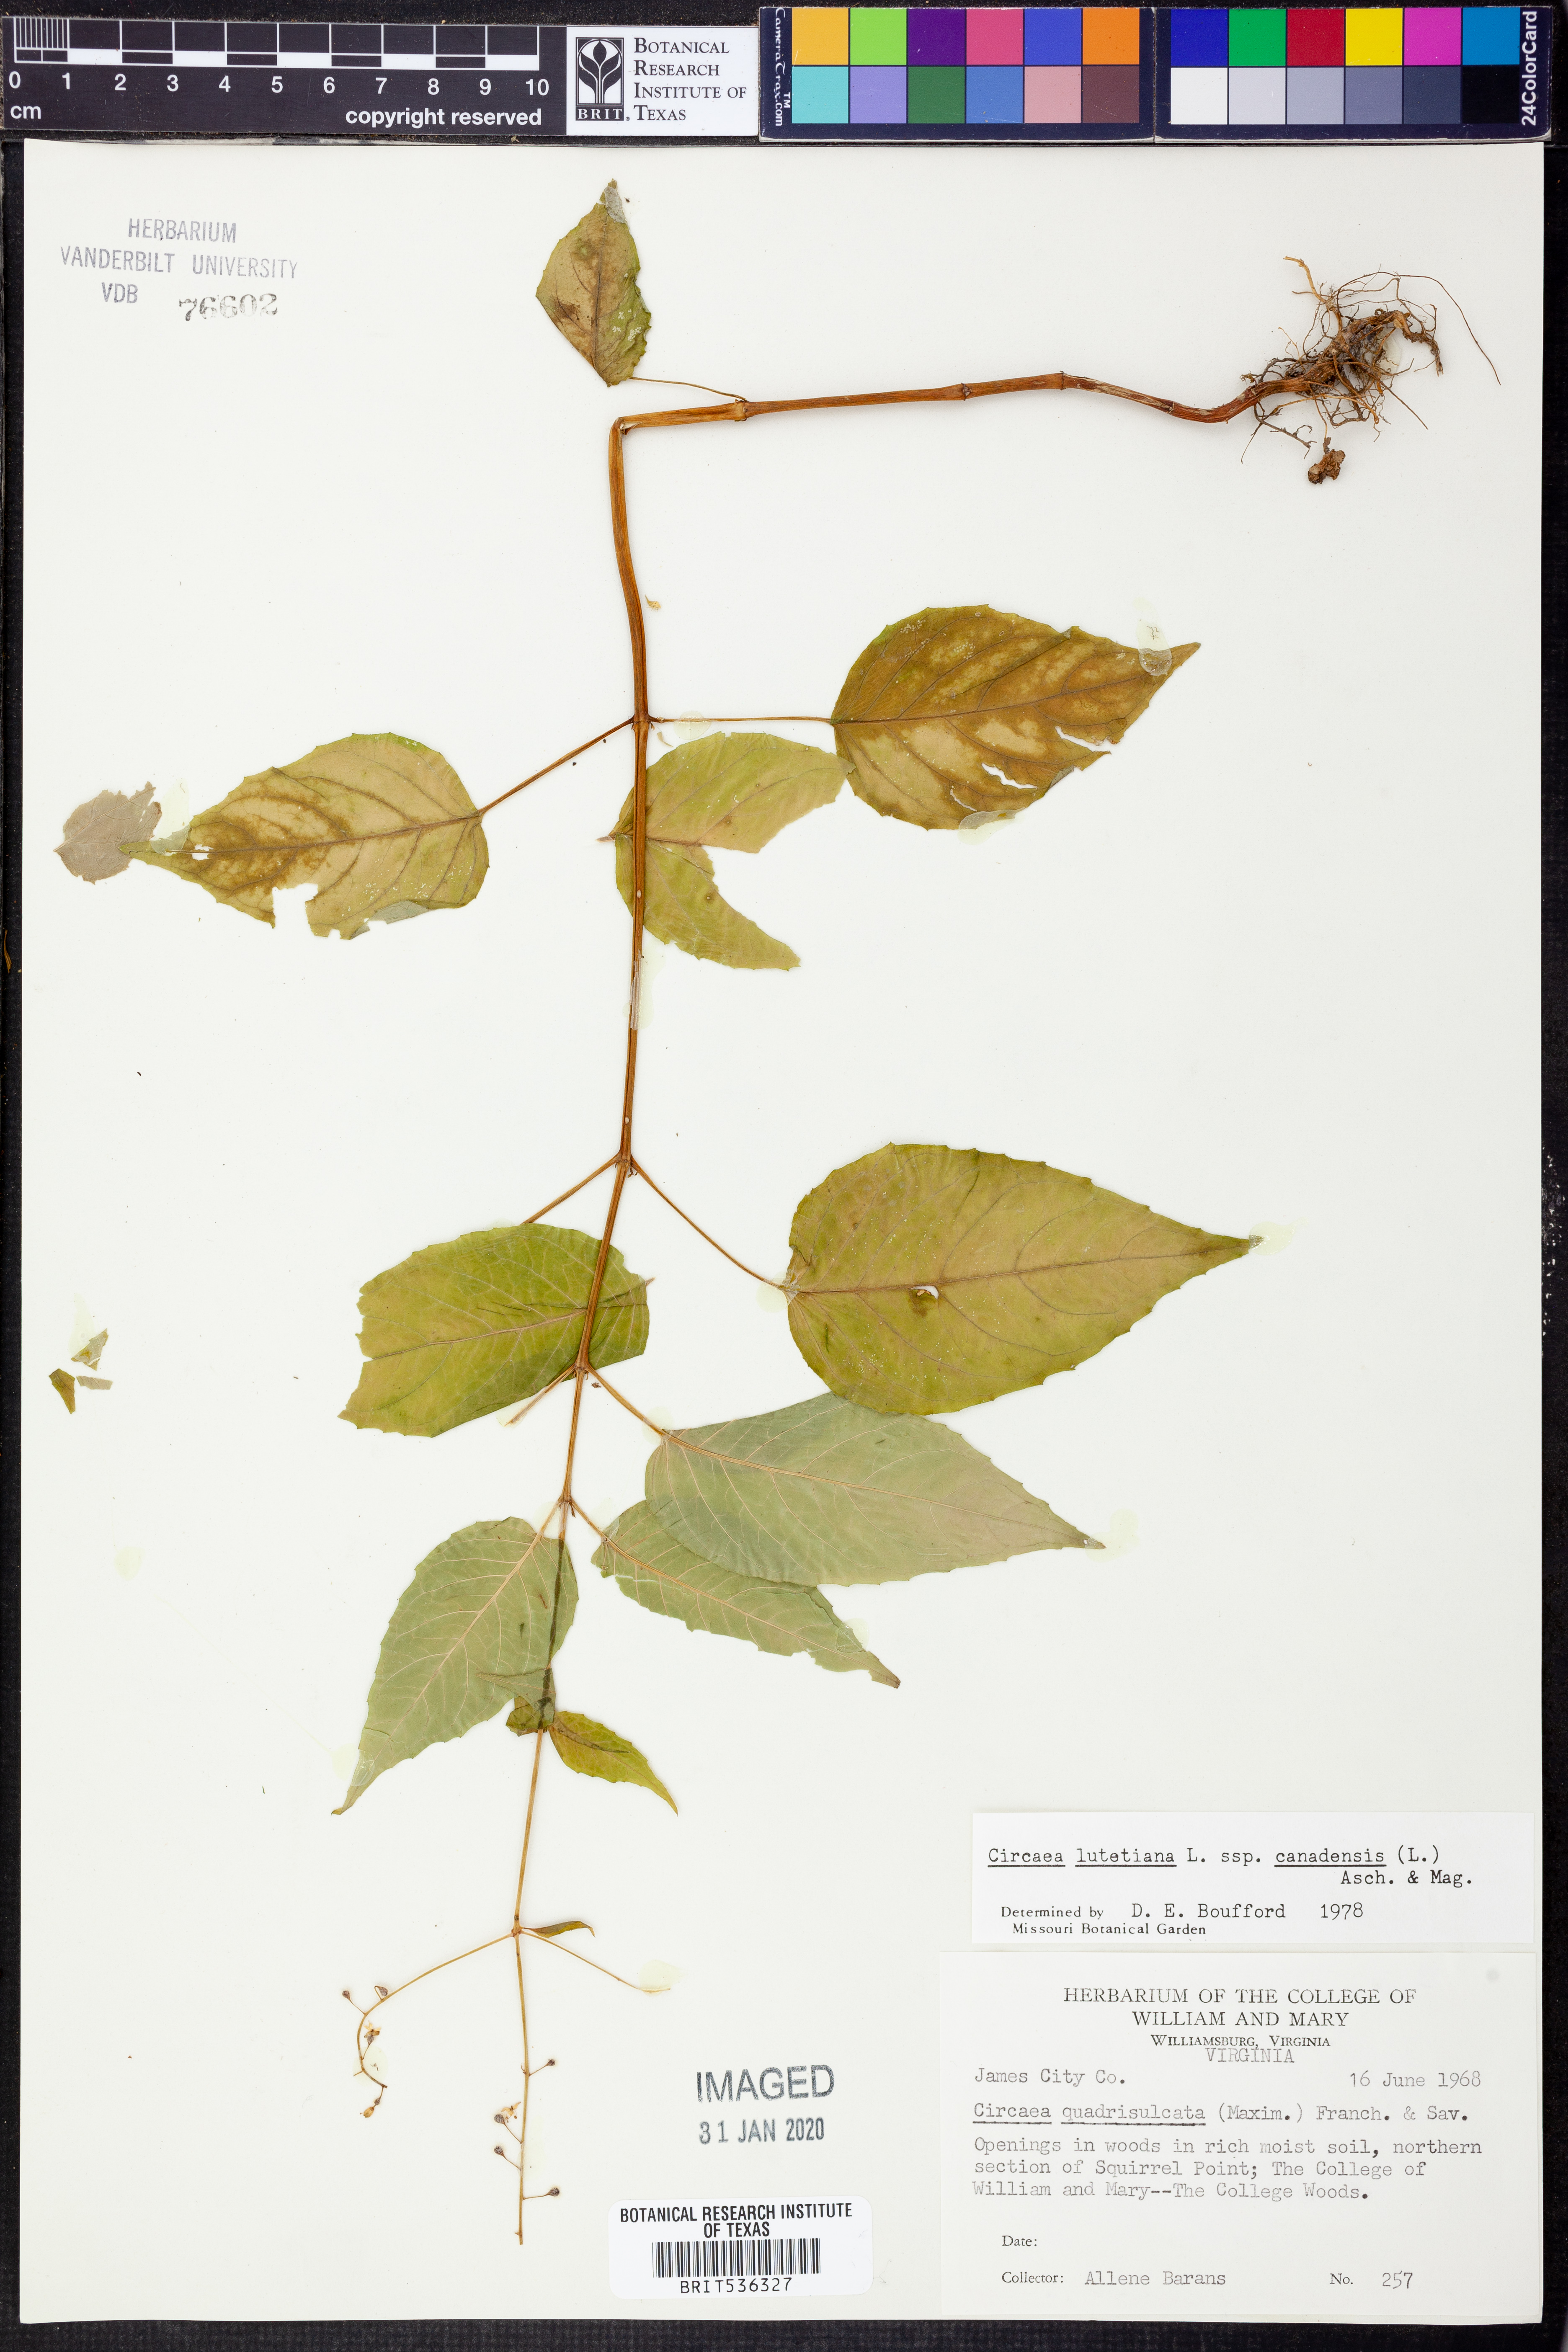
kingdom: Plantae
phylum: Tracheophyta
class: Magnoliopsida
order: Myrtales
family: Onagraceae
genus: Circaea
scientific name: Circaea canadensis
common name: Broad-leaved enchanter's nightshade
